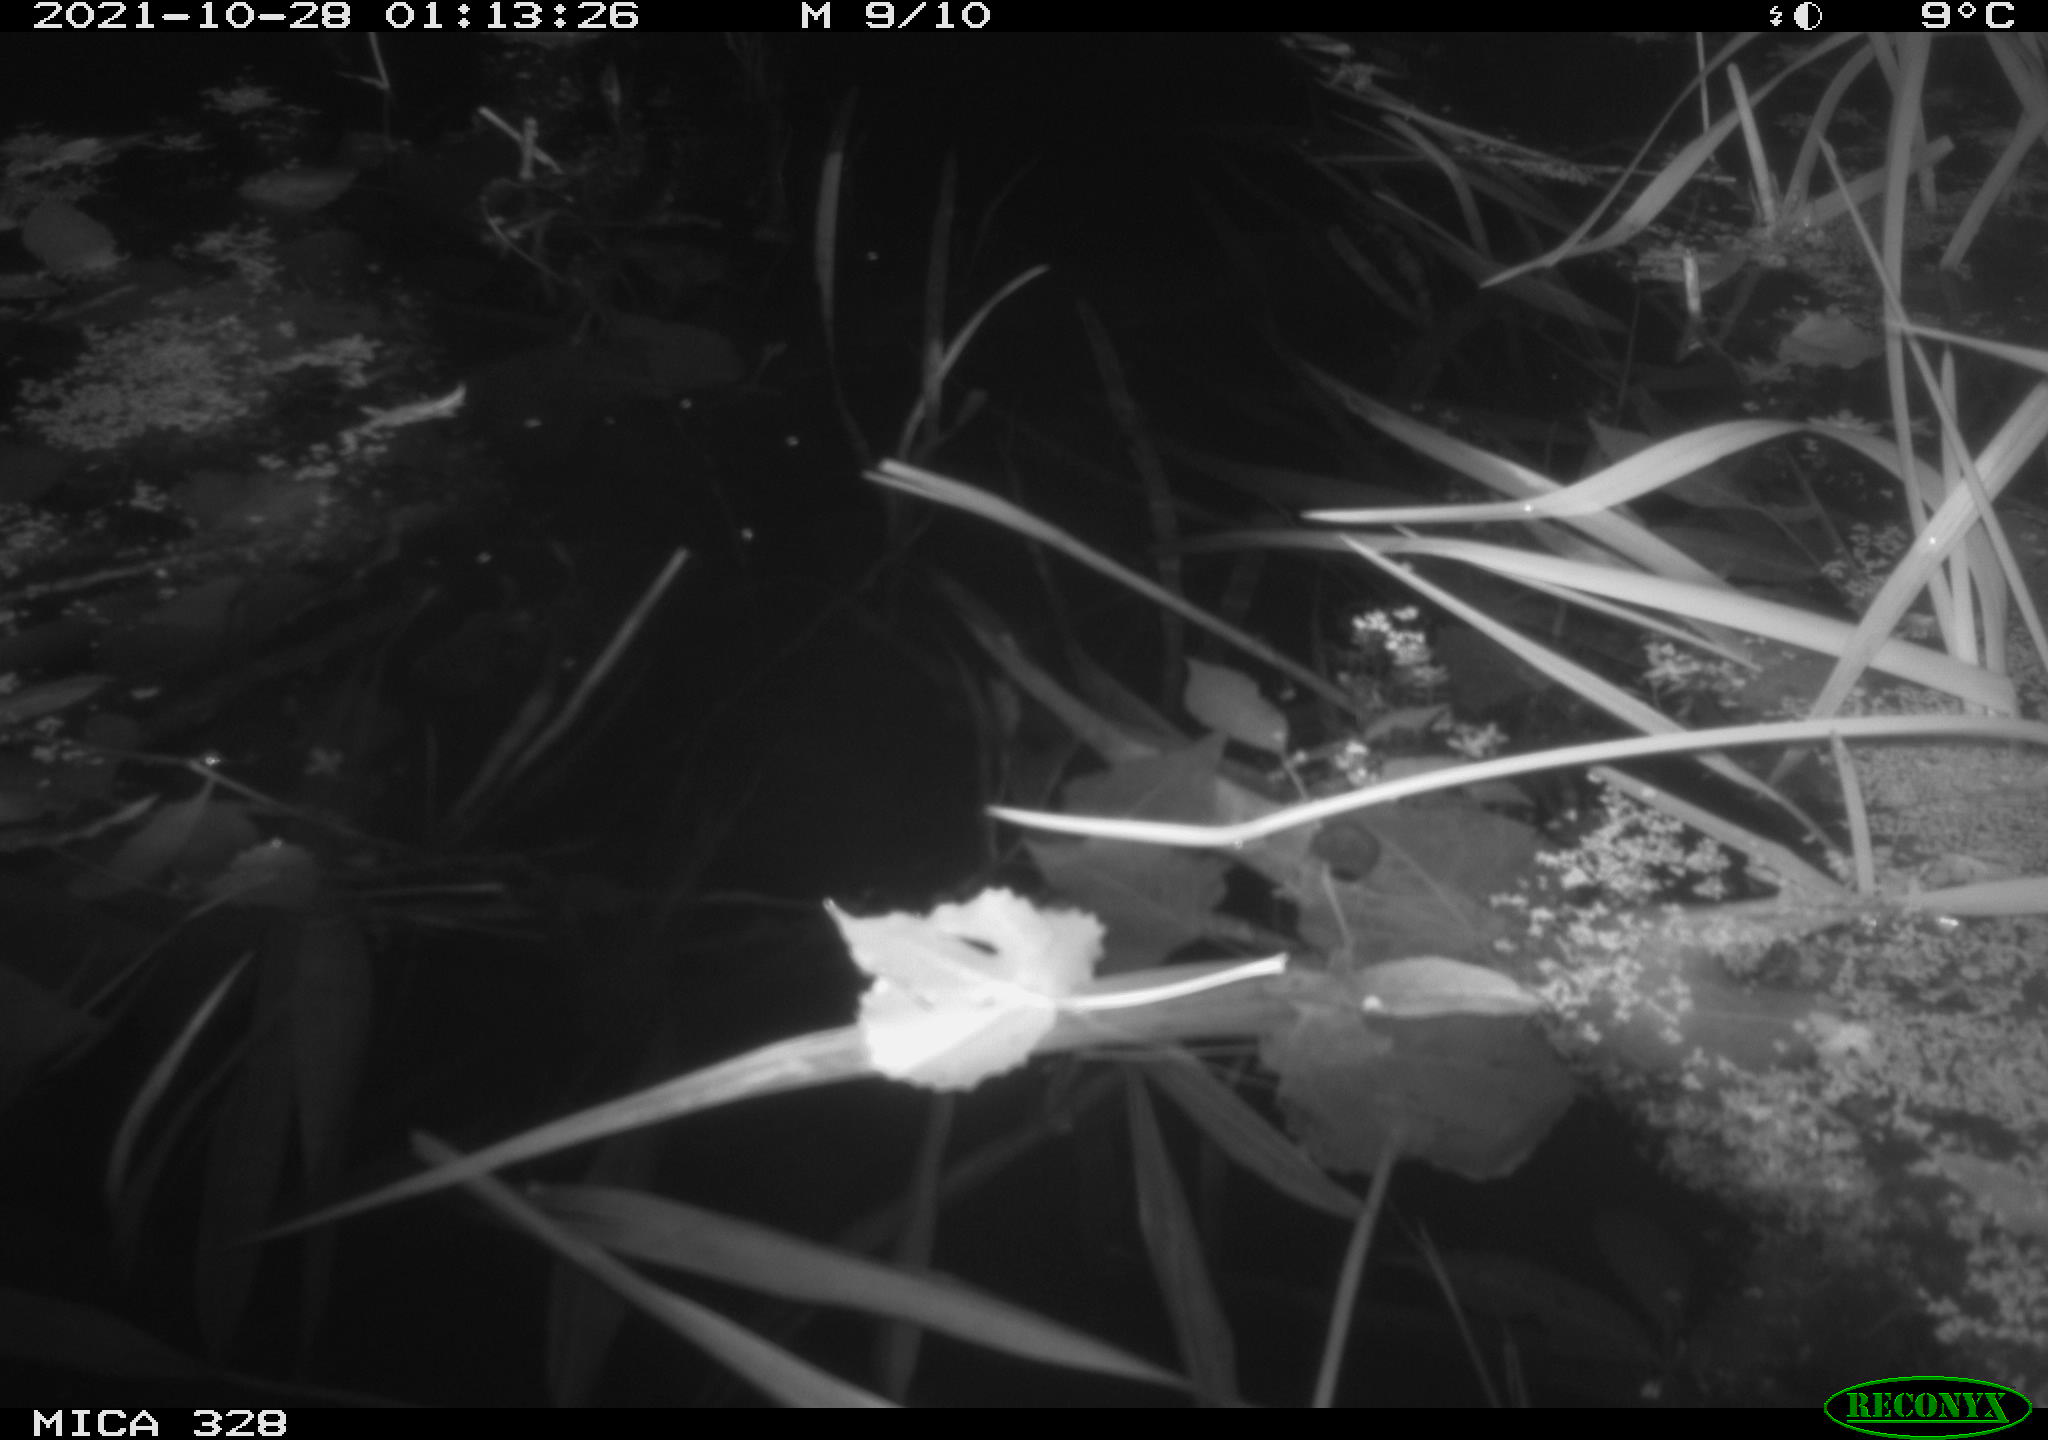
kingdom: Animalia
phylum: Chordata
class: Mammalia
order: Rodentia
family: Muridae
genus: Rattus
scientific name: Rattus norvegicus
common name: Brown rat
